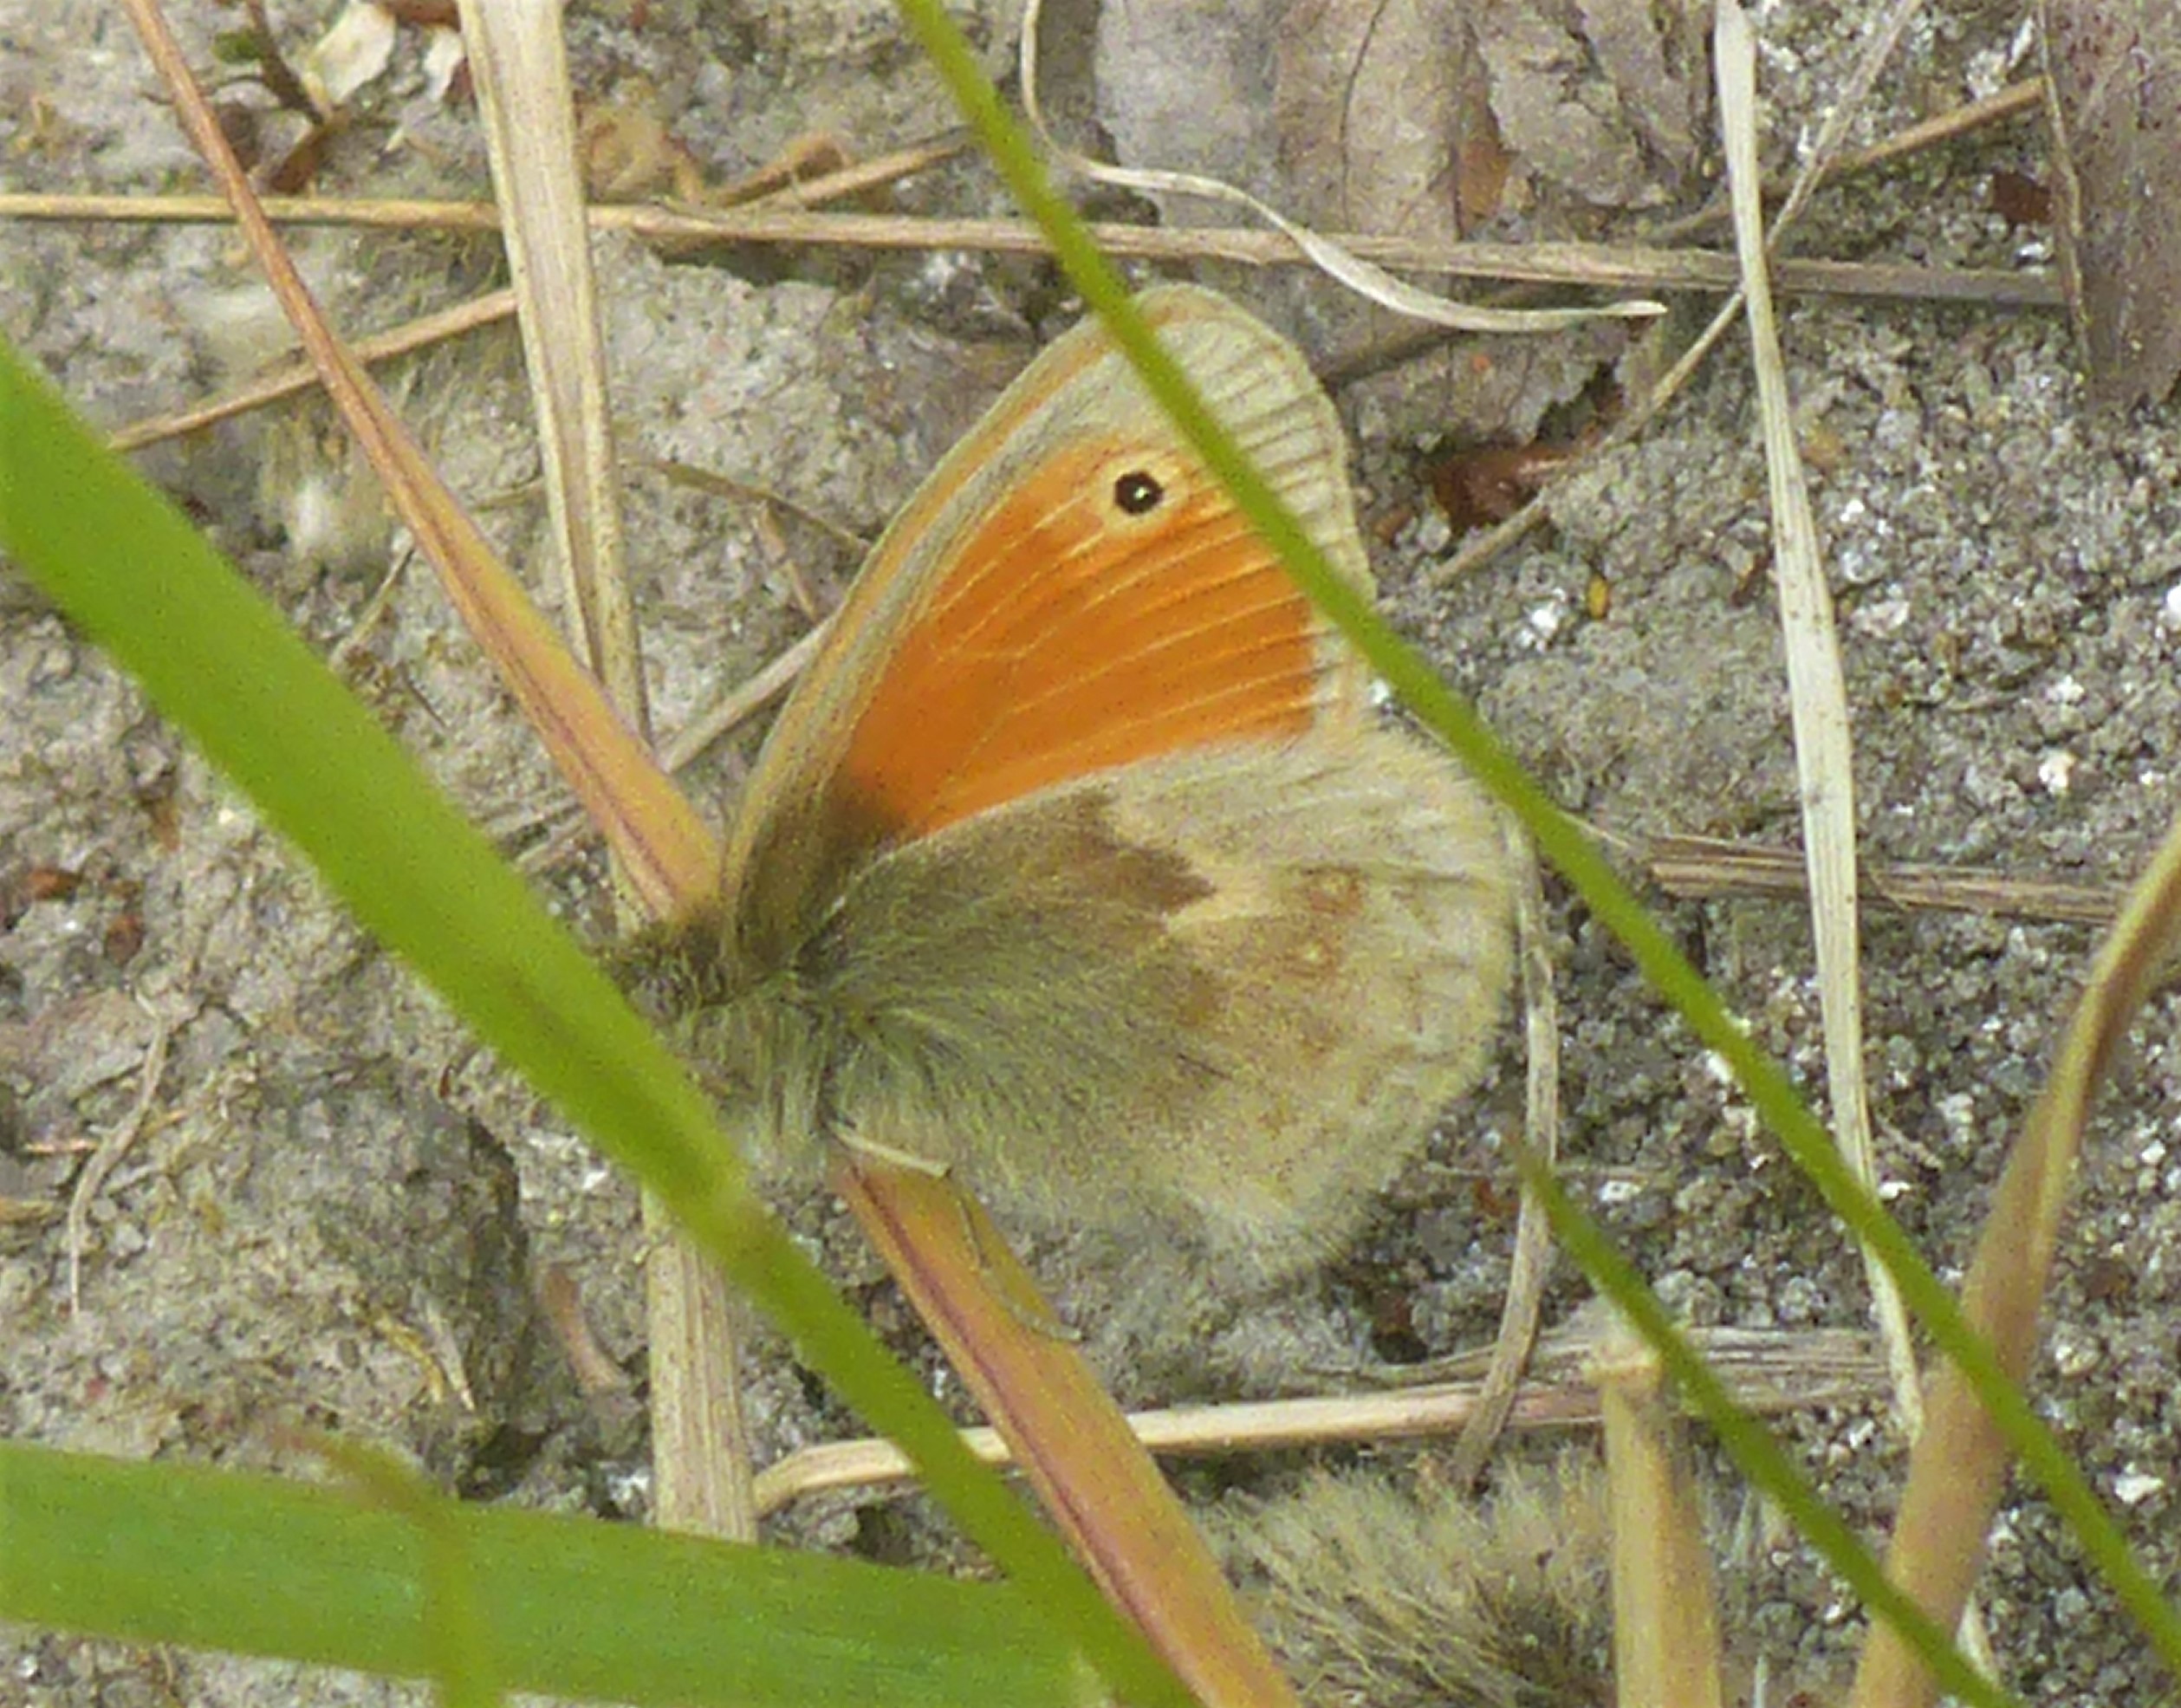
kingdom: Animalia
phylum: Arthropoda
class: Insecta
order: Lepidoptera
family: Nymphalidae
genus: Coenonympha
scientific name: Coenonympha pamphilus
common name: Okkergul randøje
